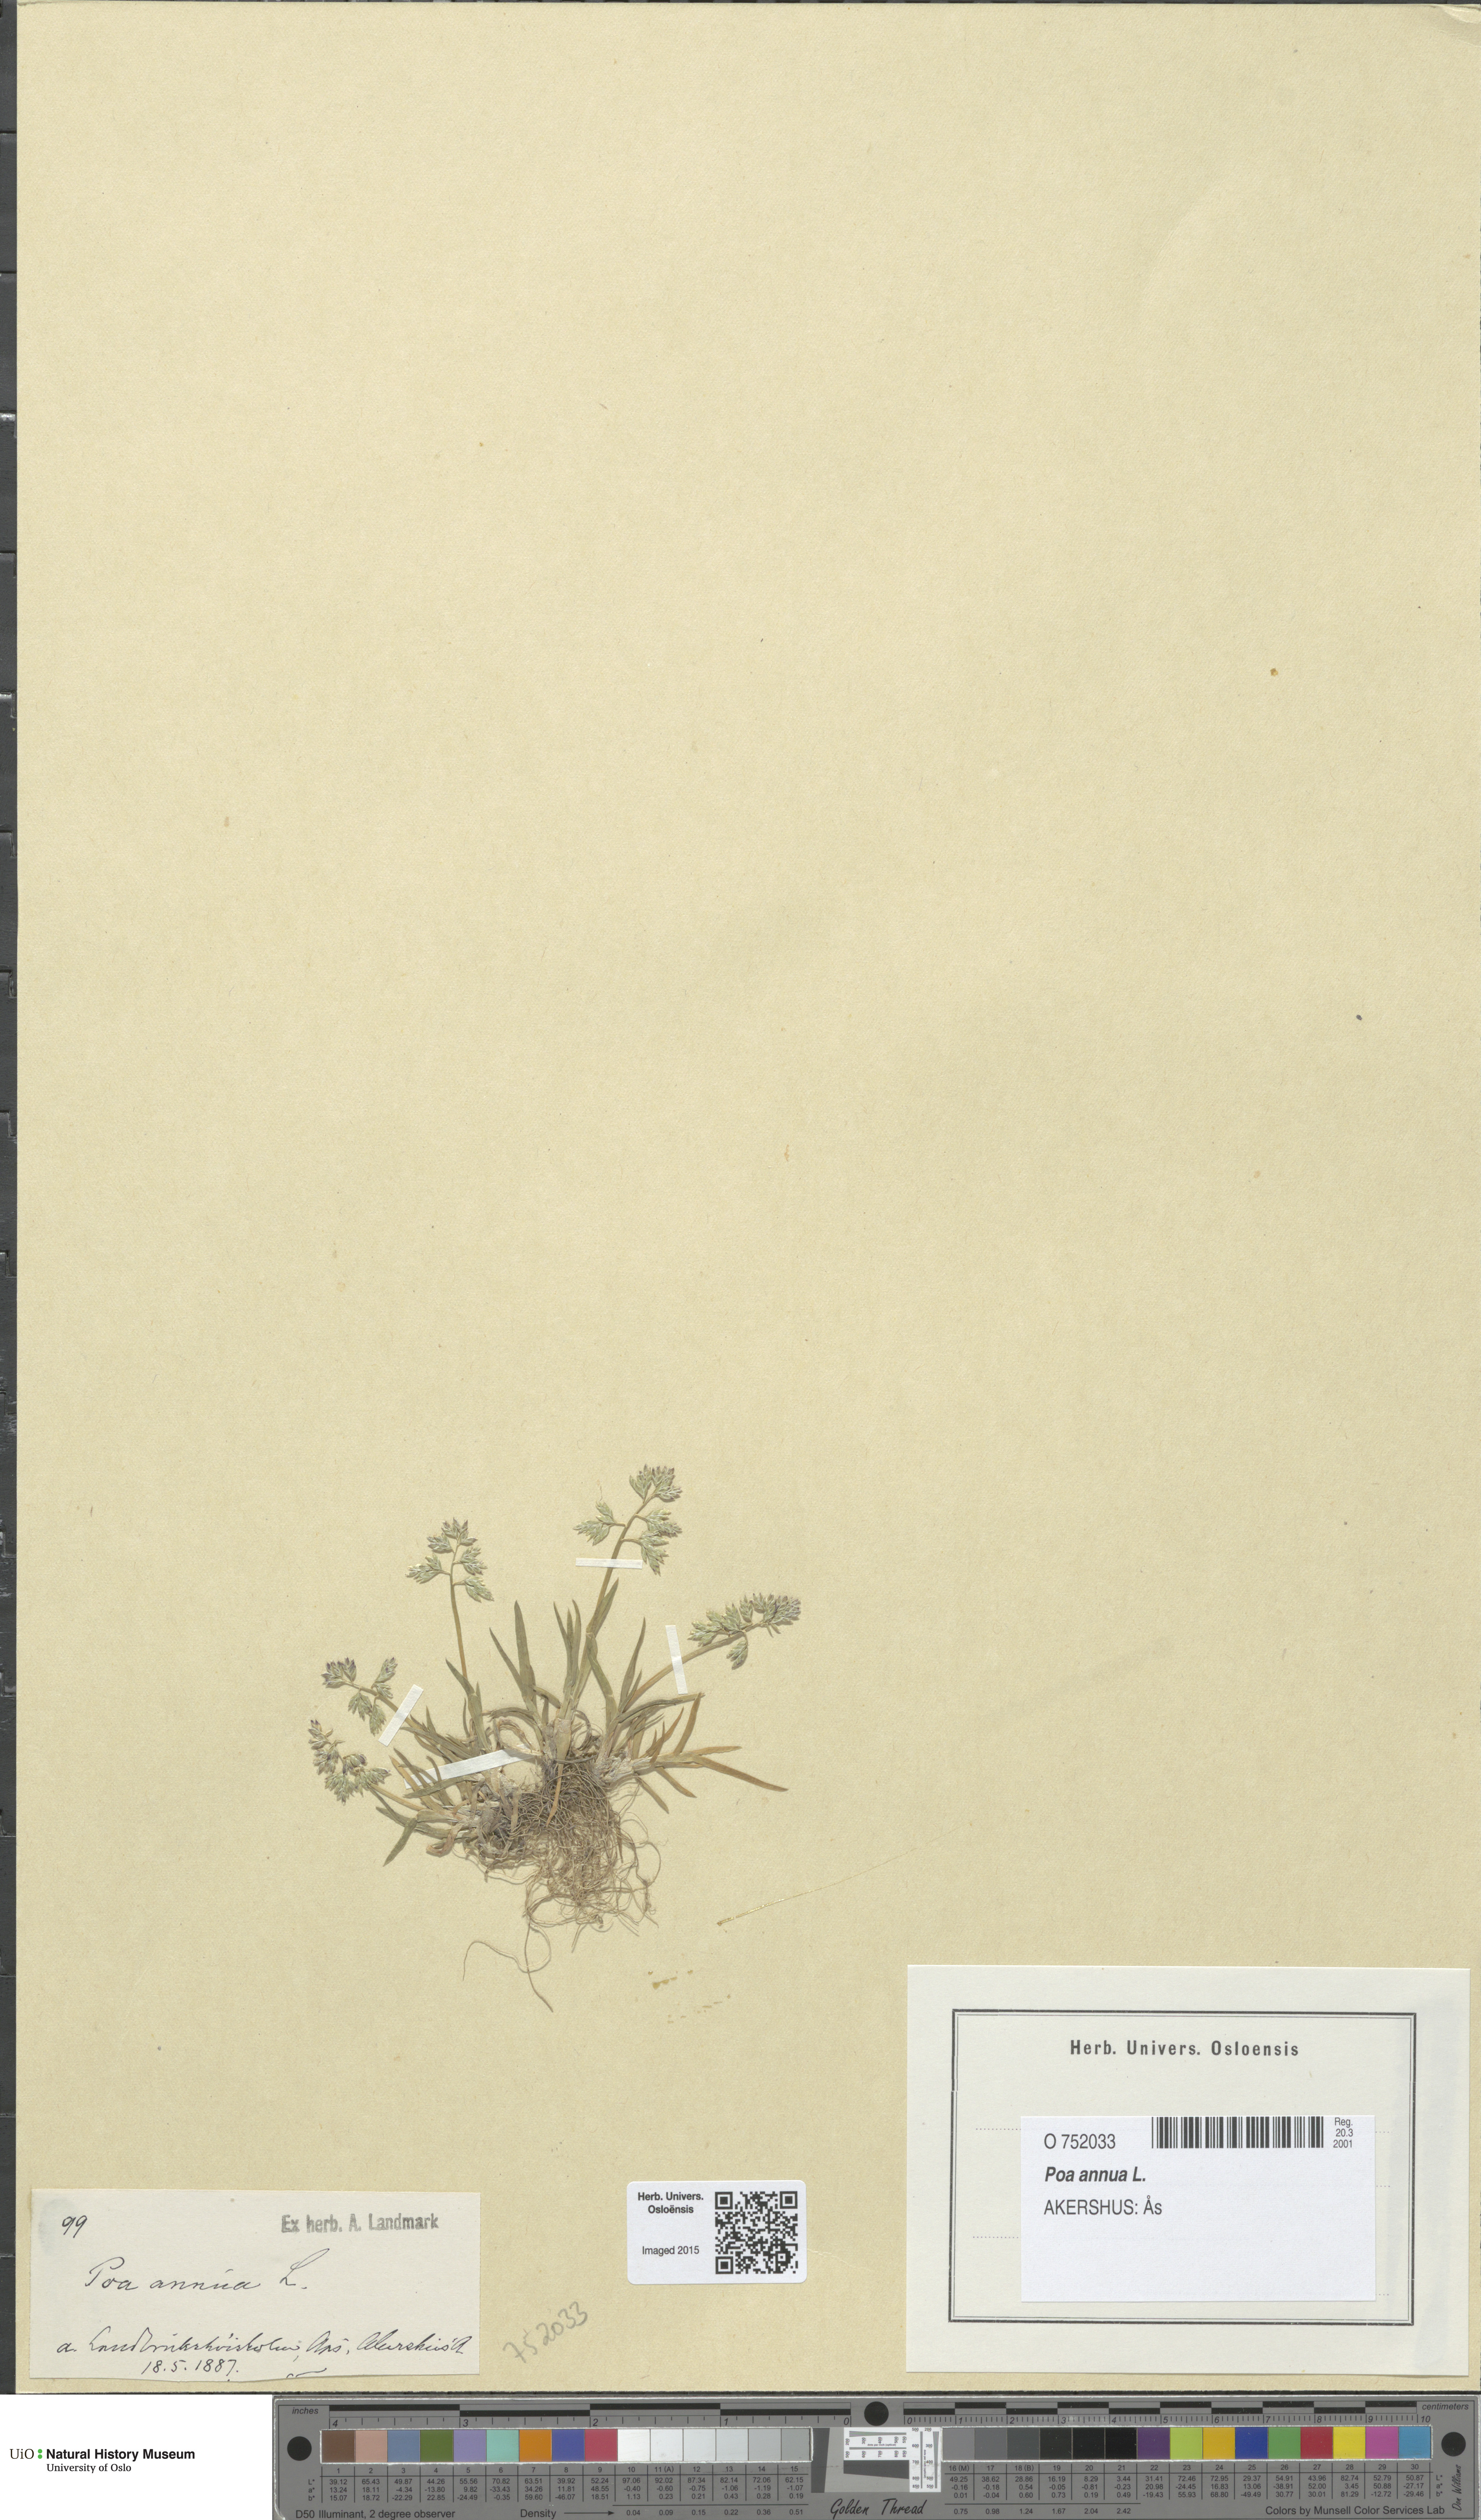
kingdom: Plantae
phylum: Tracheophyta
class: Liliopsida
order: Poales
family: Poaceae
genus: Poa
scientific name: Poa annua
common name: Annual bluegrass
